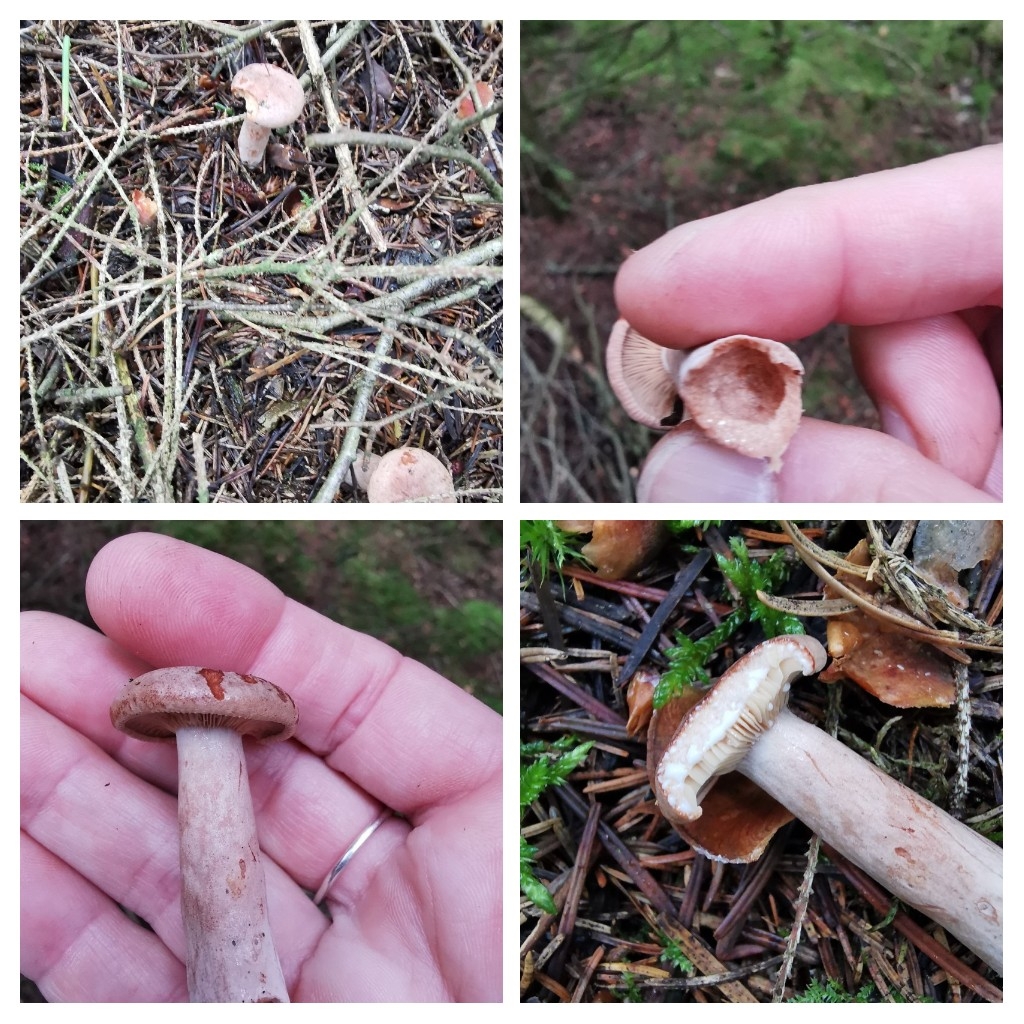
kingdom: Fungi
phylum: Basidiomycota
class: Agaricomycetes
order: Russulales
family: Russulaceae
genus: Lactarius
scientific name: Lactarius
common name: mælkehat
